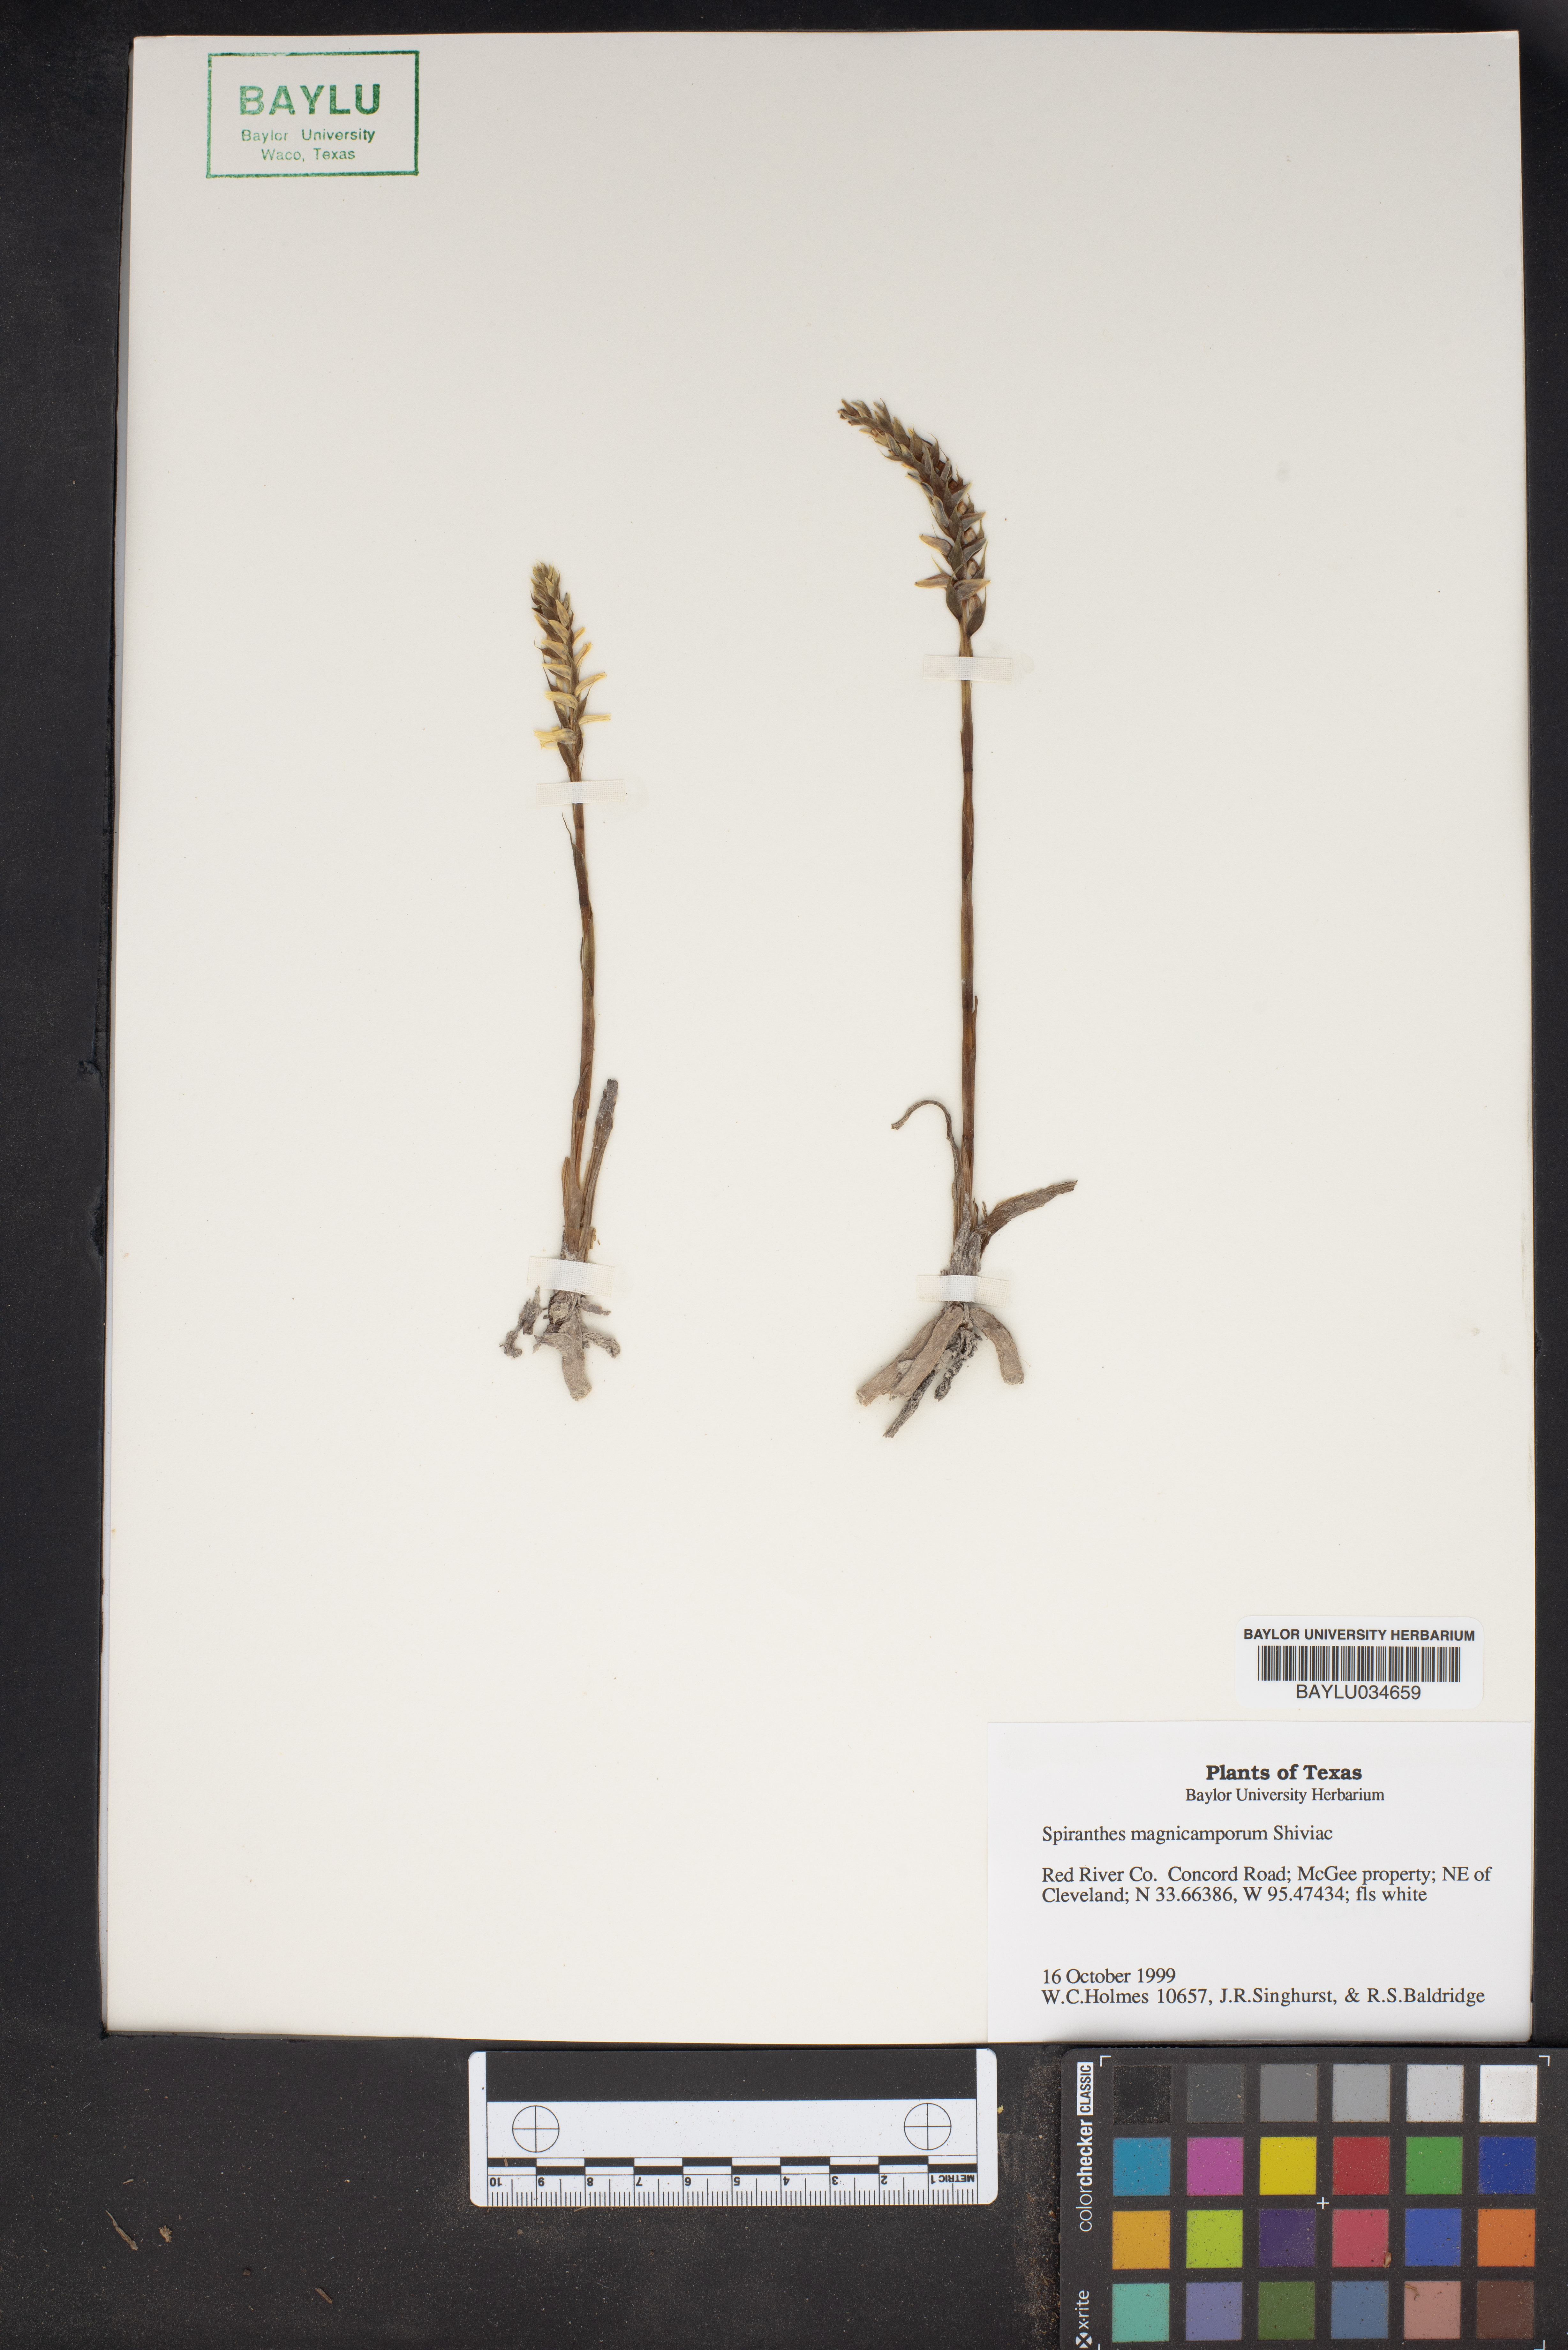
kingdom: Plantae
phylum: Tracheophyta
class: Liliopsida
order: Asparagales
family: Orchidaceae
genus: Spiranthes
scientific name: Spiranthes magnicamporum
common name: Great plains ladies'-tresses
